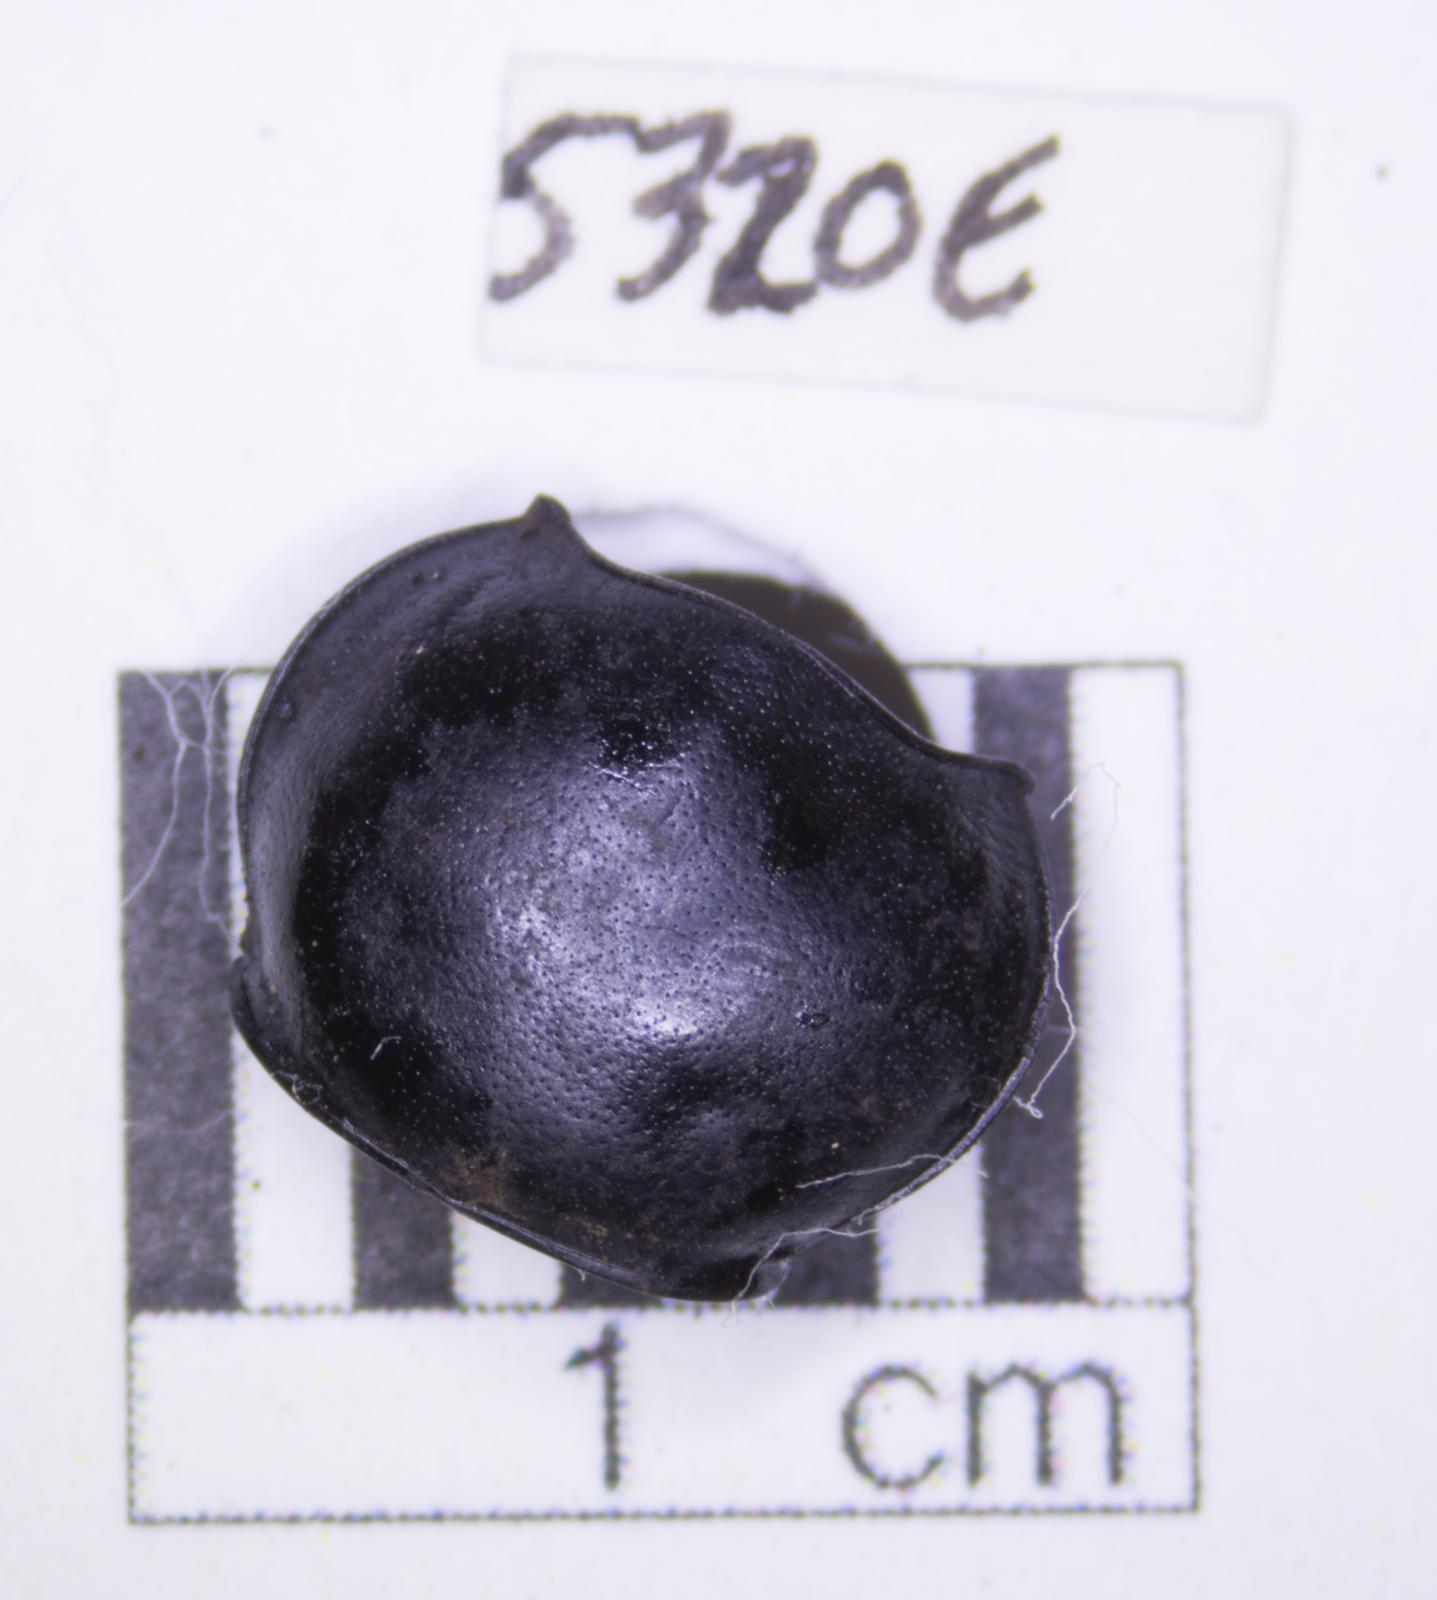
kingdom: Animalia
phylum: Arthropoda
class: Insecta
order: Coleoptera
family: Tenebrionidae
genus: Eleodes
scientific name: Eleodes acuticauda
